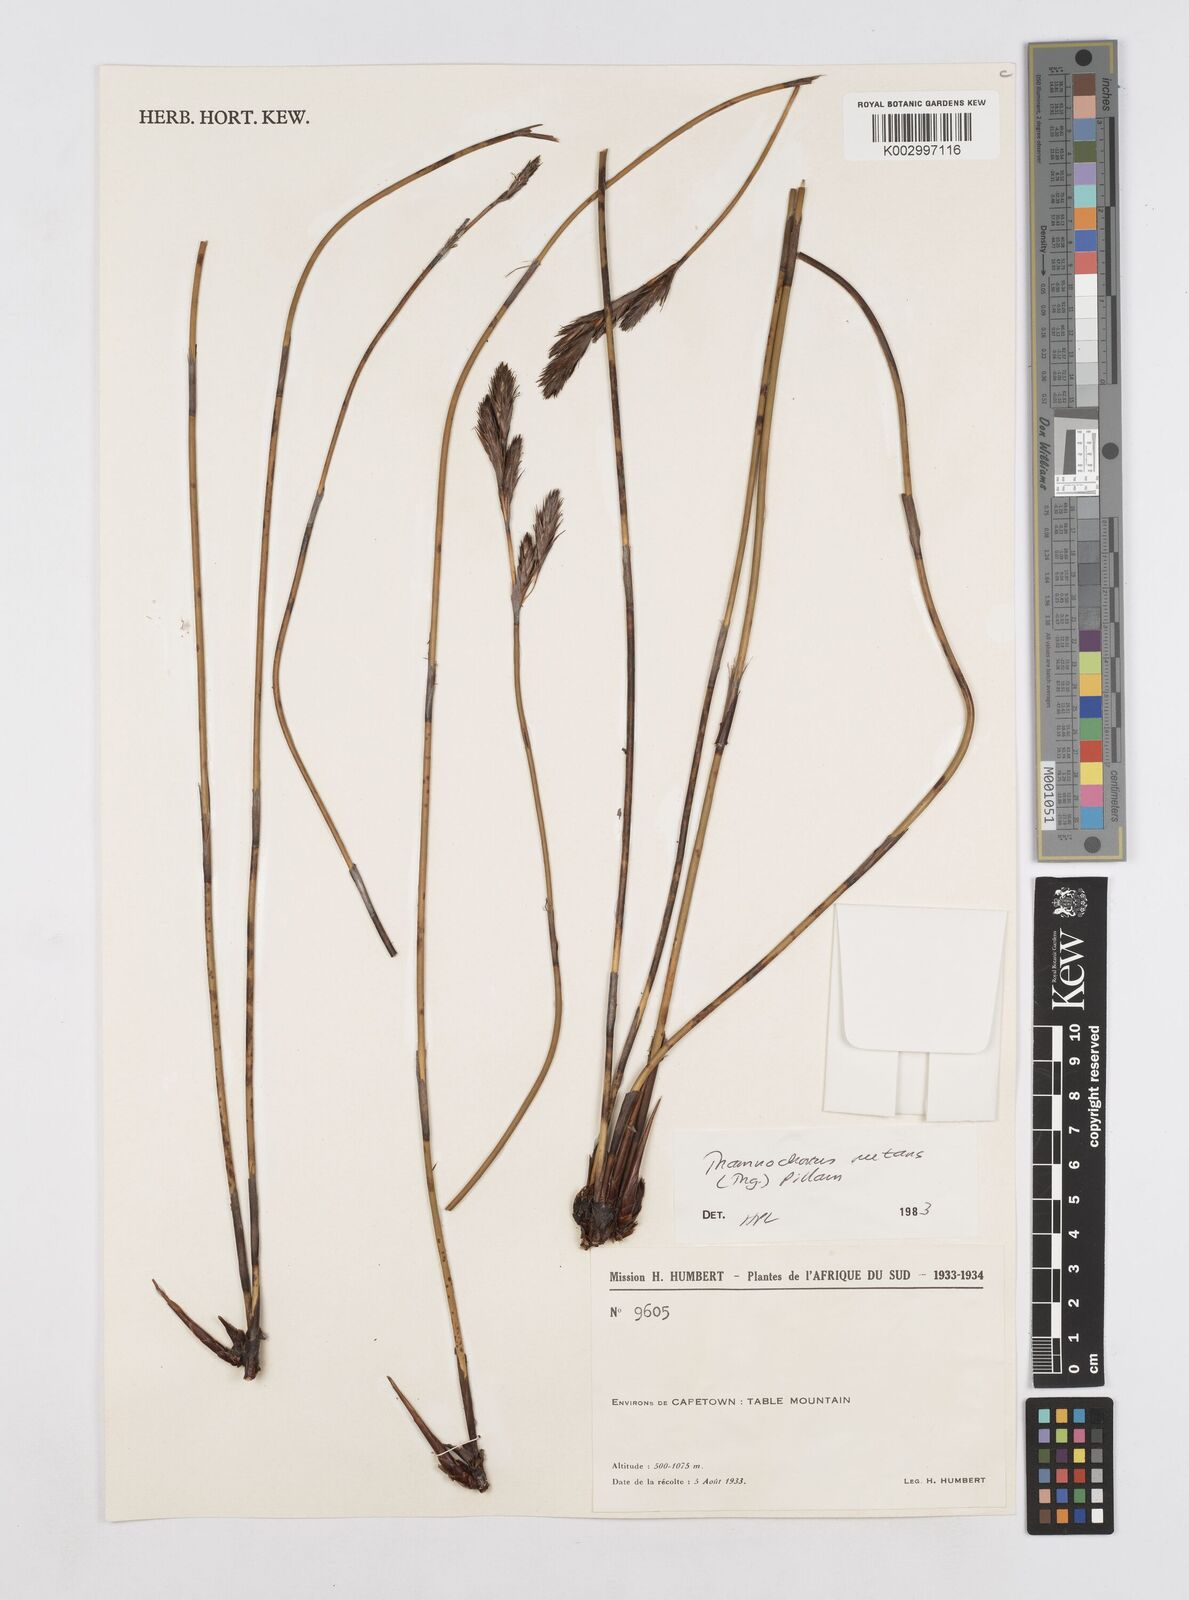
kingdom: Plantae
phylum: Tracheophyta
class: Liliopsida
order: Poales
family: Restionaceae
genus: Thamnochortus
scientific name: Thamnochortus nutans
